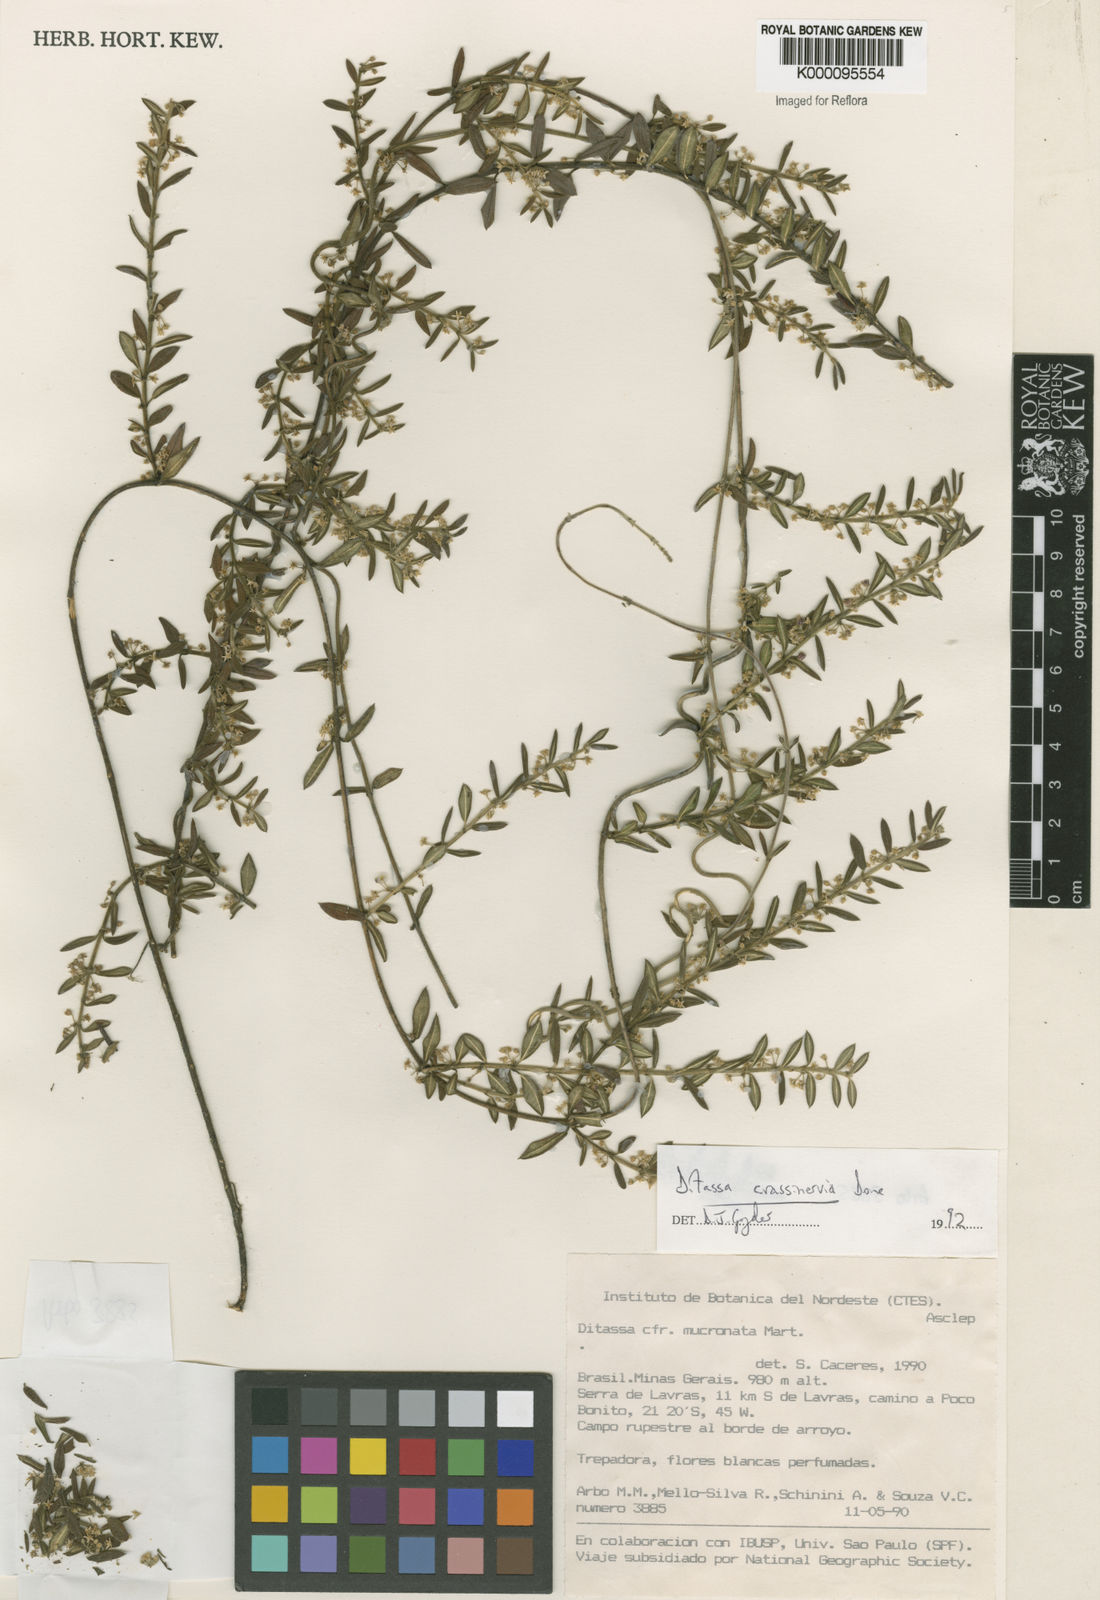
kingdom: Plantae
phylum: Tracheophyta
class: Magnoliopsida
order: Gentianales
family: Apocynaceae
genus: Ditassa
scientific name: Ditassa mucronata
